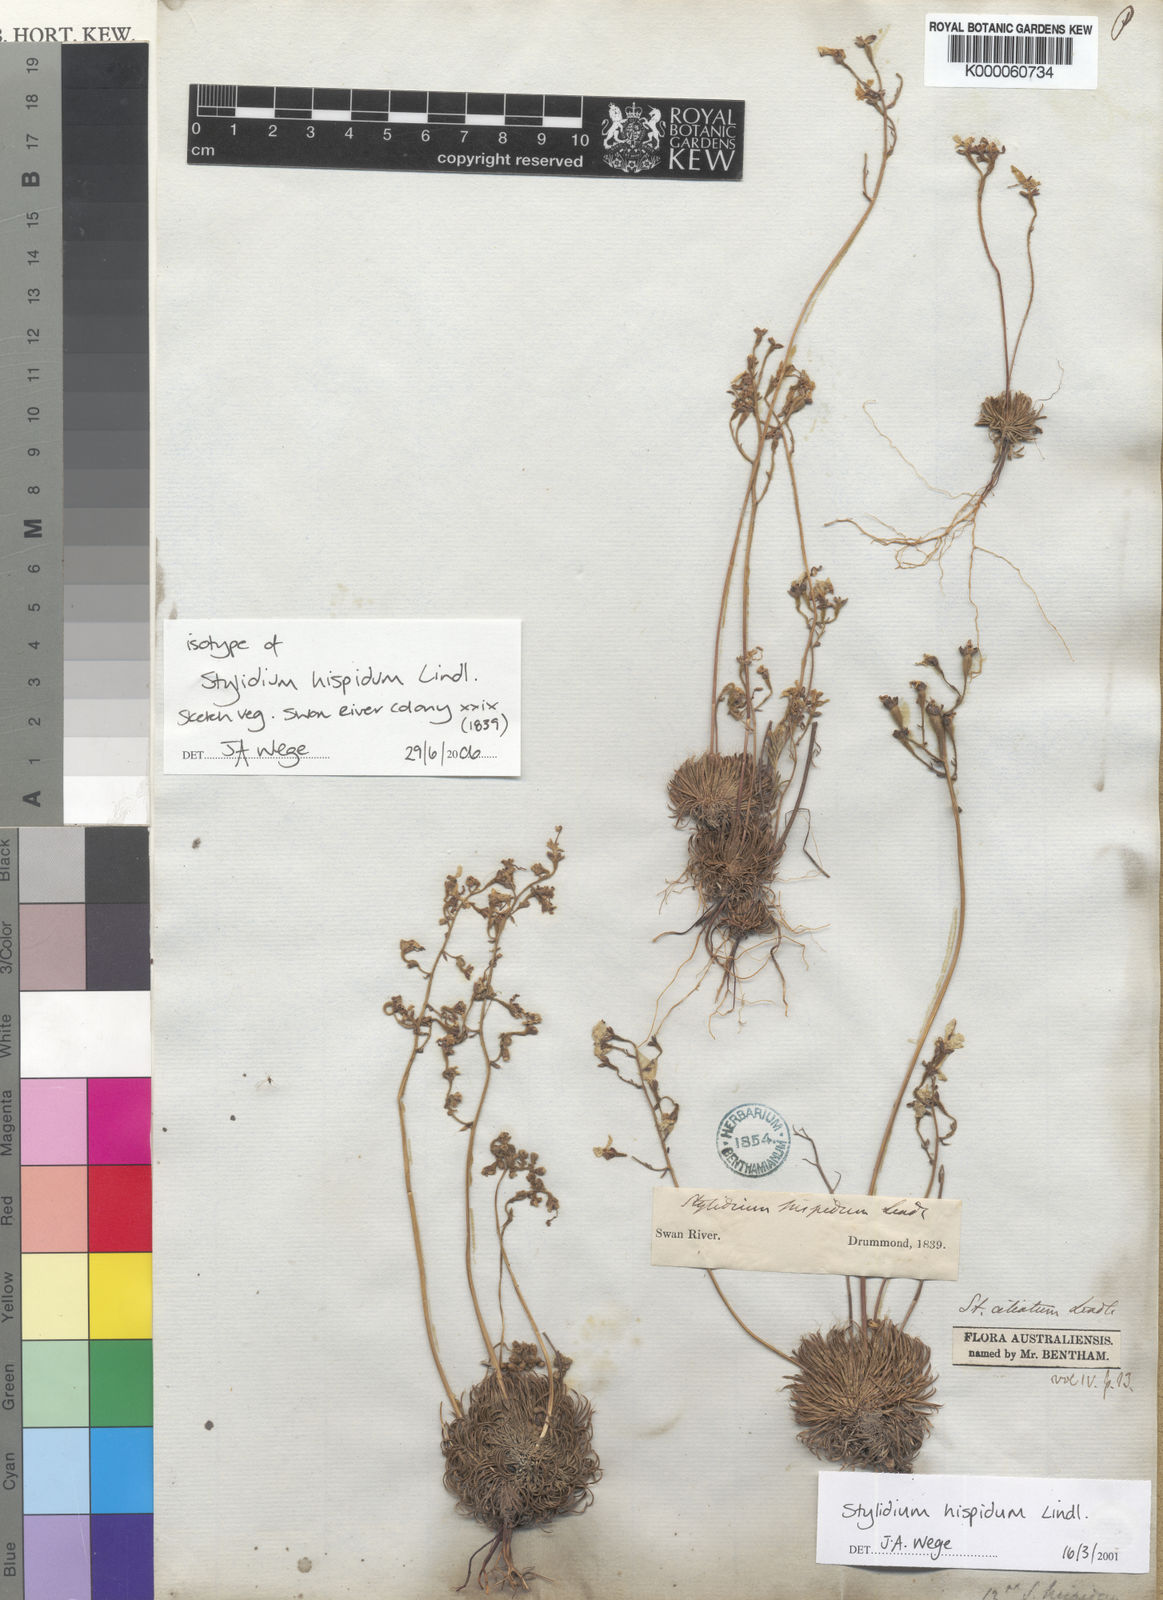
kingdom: Plantae
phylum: Tracheophyta
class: Magnoliopsida
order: Asterales
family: Stylidiaceae
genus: Stylidium
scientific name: Stylidium hispidum
